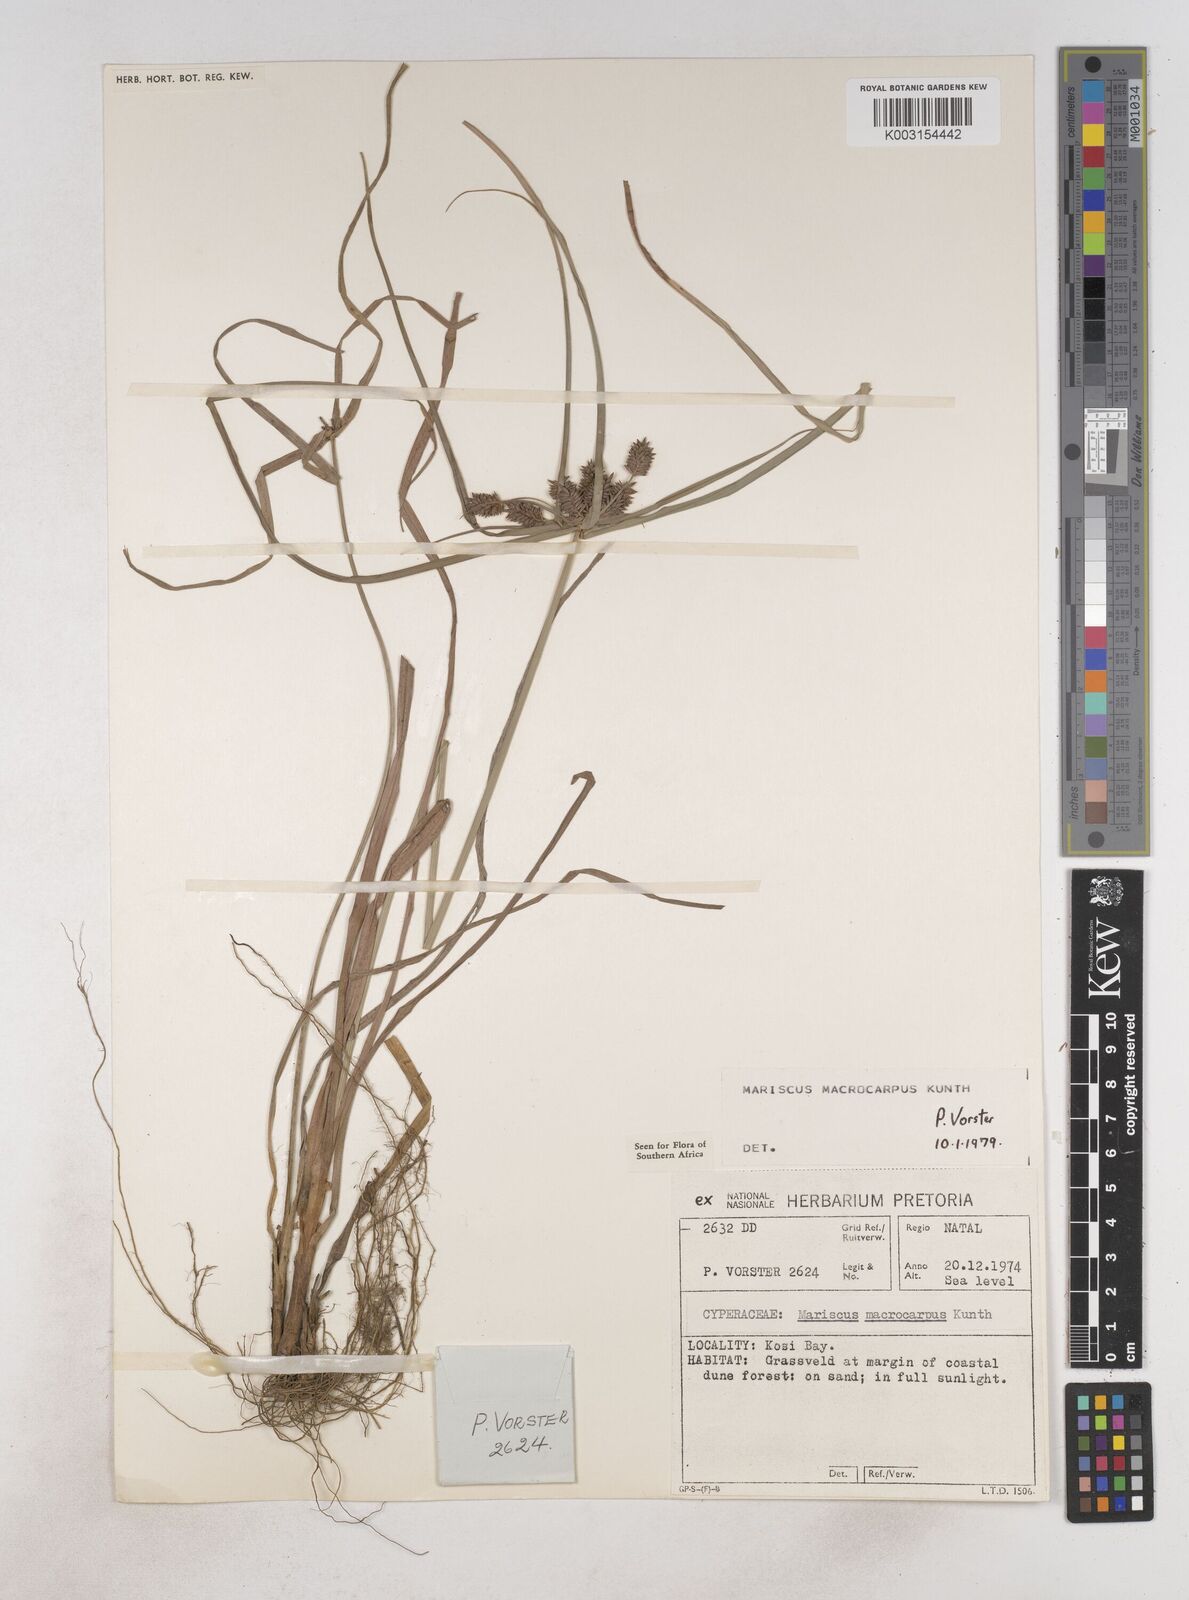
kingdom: Plantae
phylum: Tracheophyta
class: Liliopsida
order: Poales
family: Cyperaceae
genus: Cyperus
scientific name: Cyperus macrocarpus
